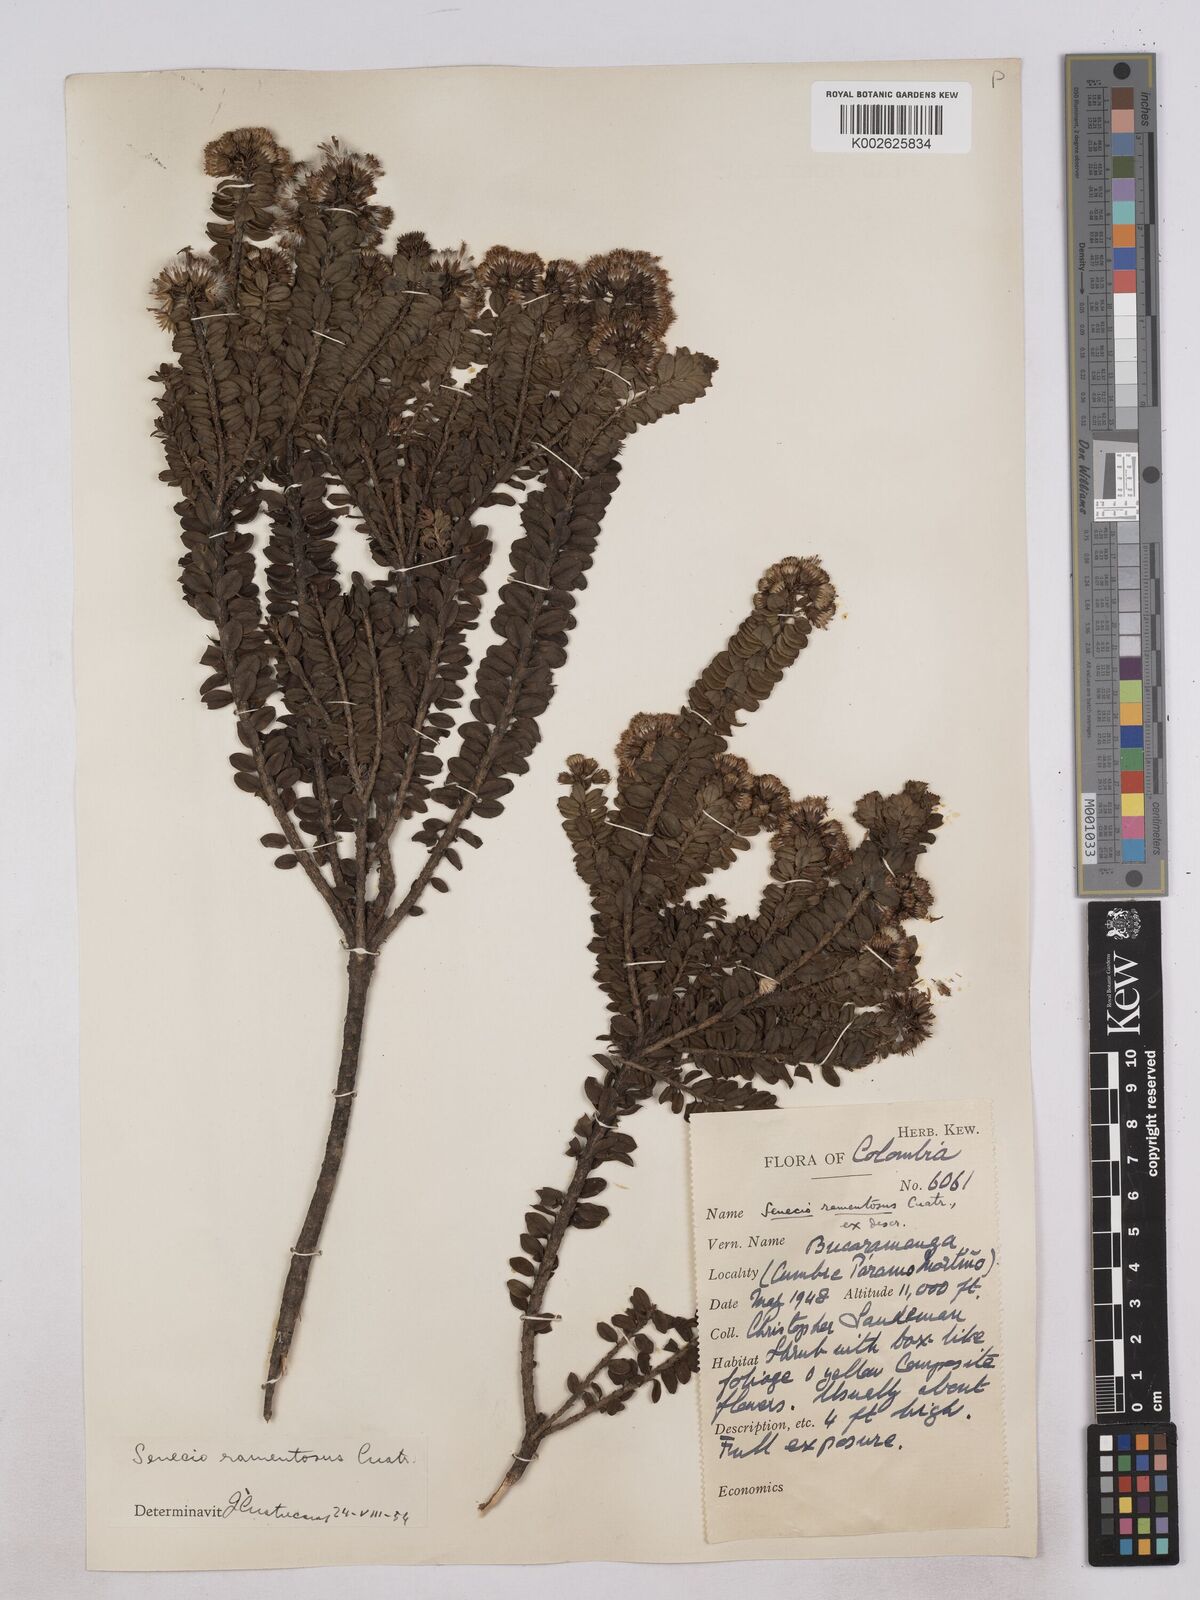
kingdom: Plantae
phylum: Tracheophyta
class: Magnoliopsida
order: Asterales
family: Asteraceae
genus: Monticalia
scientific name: Monticalia
